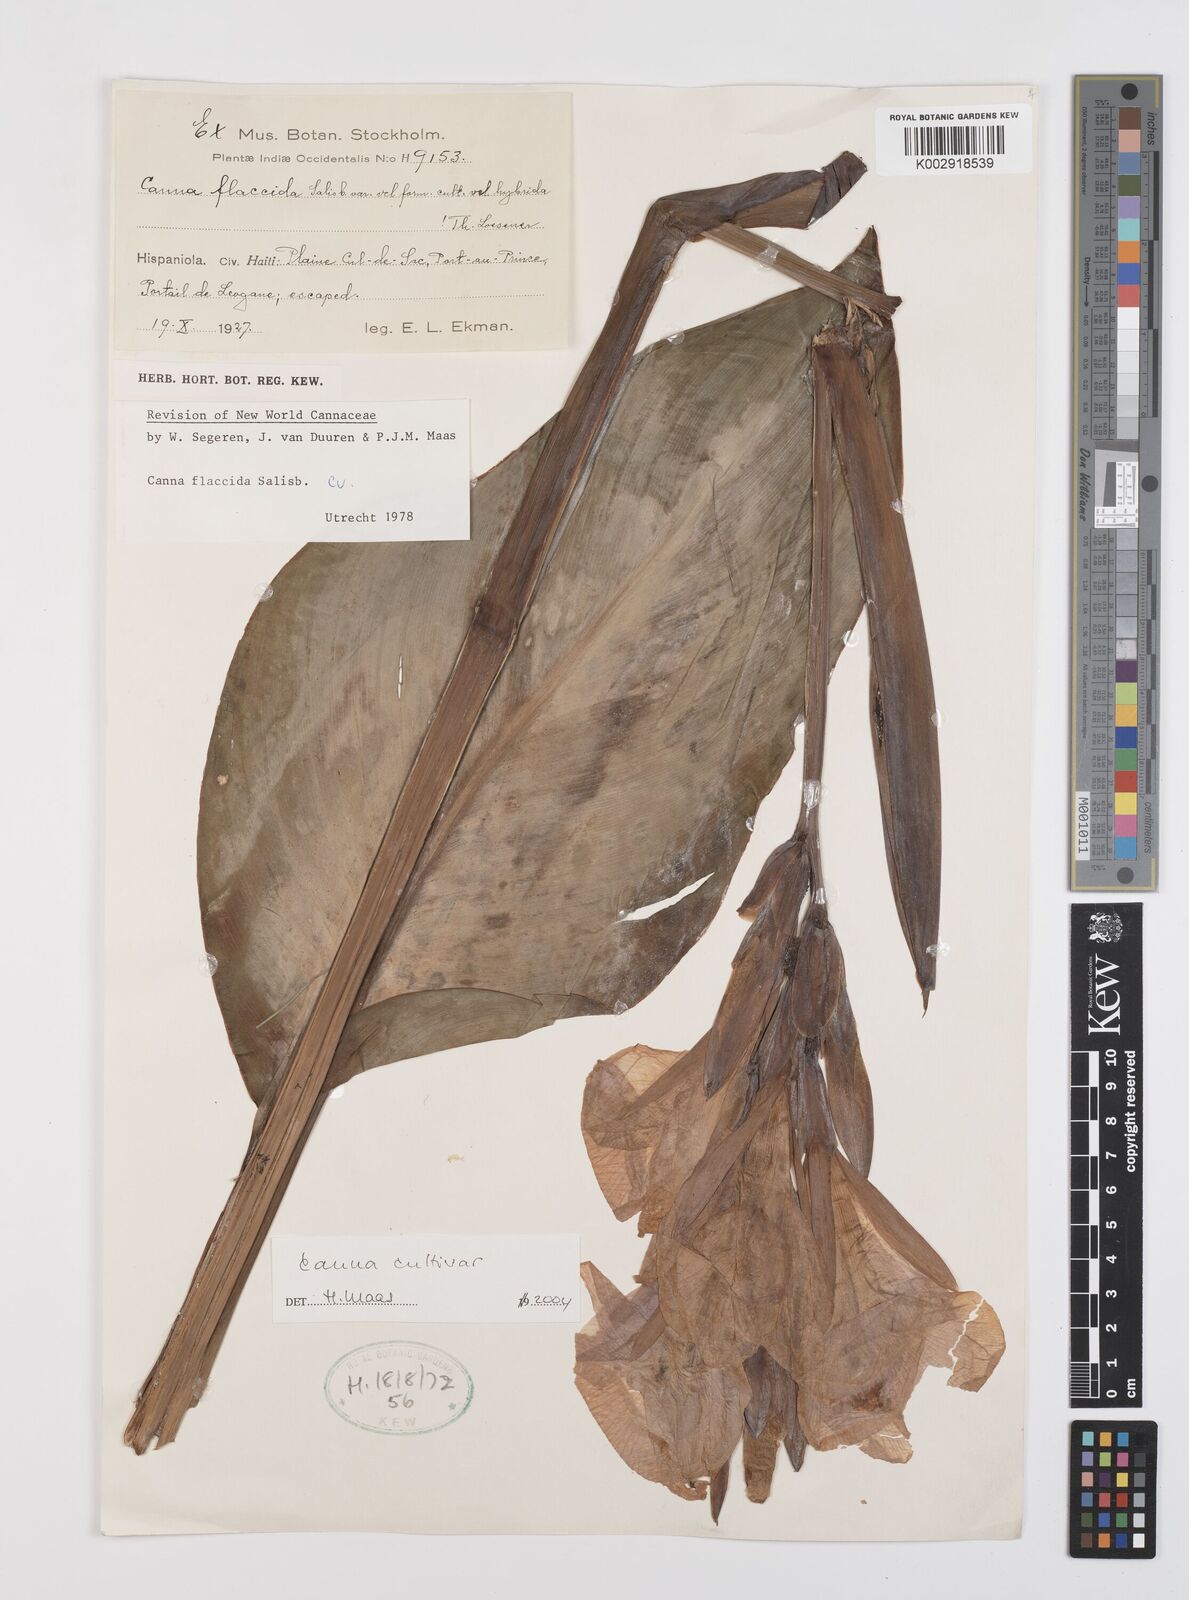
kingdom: Plantae
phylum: Tracheophyta
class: Liliopsida
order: Zingiberales
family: Cannaceae
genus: Canna
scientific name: Canna
